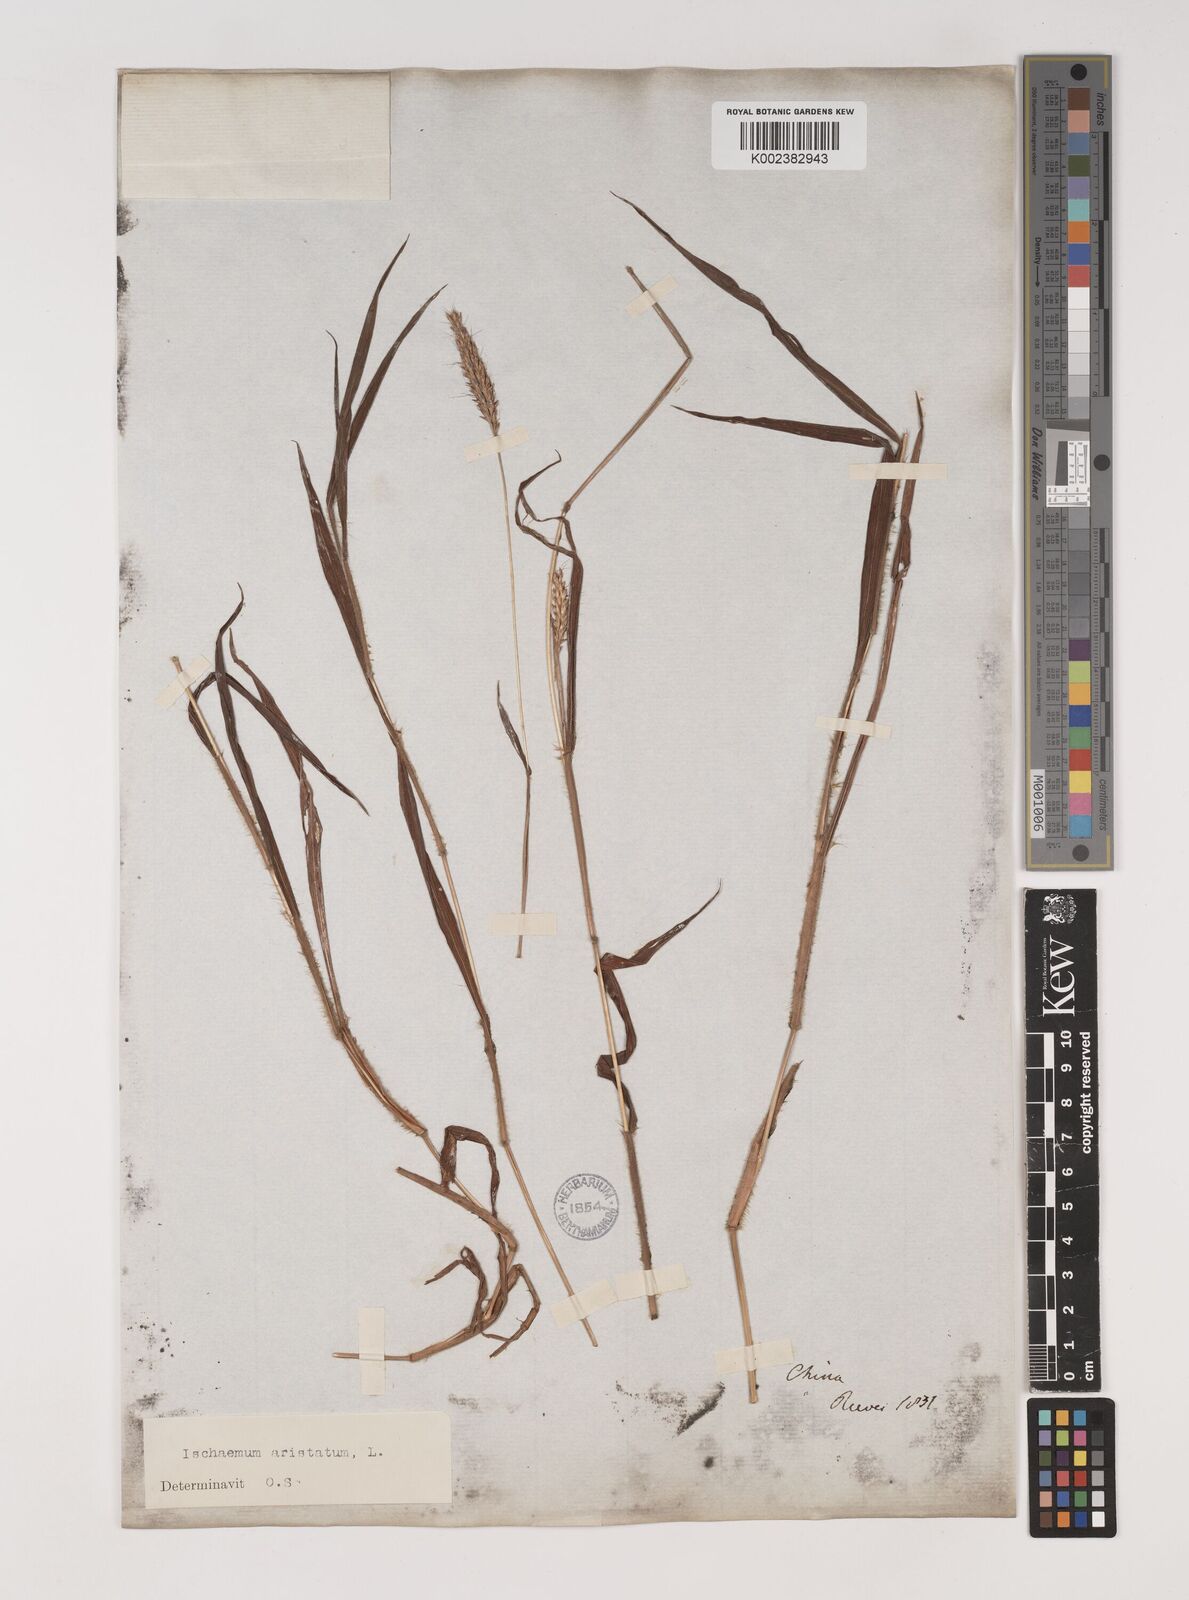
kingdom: Plantae
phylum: Tracheophyta
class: Liliopsida
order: Poales
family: Poaceae
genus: Polytrias
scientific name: Polytrias indica
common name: Indian murainagrass
